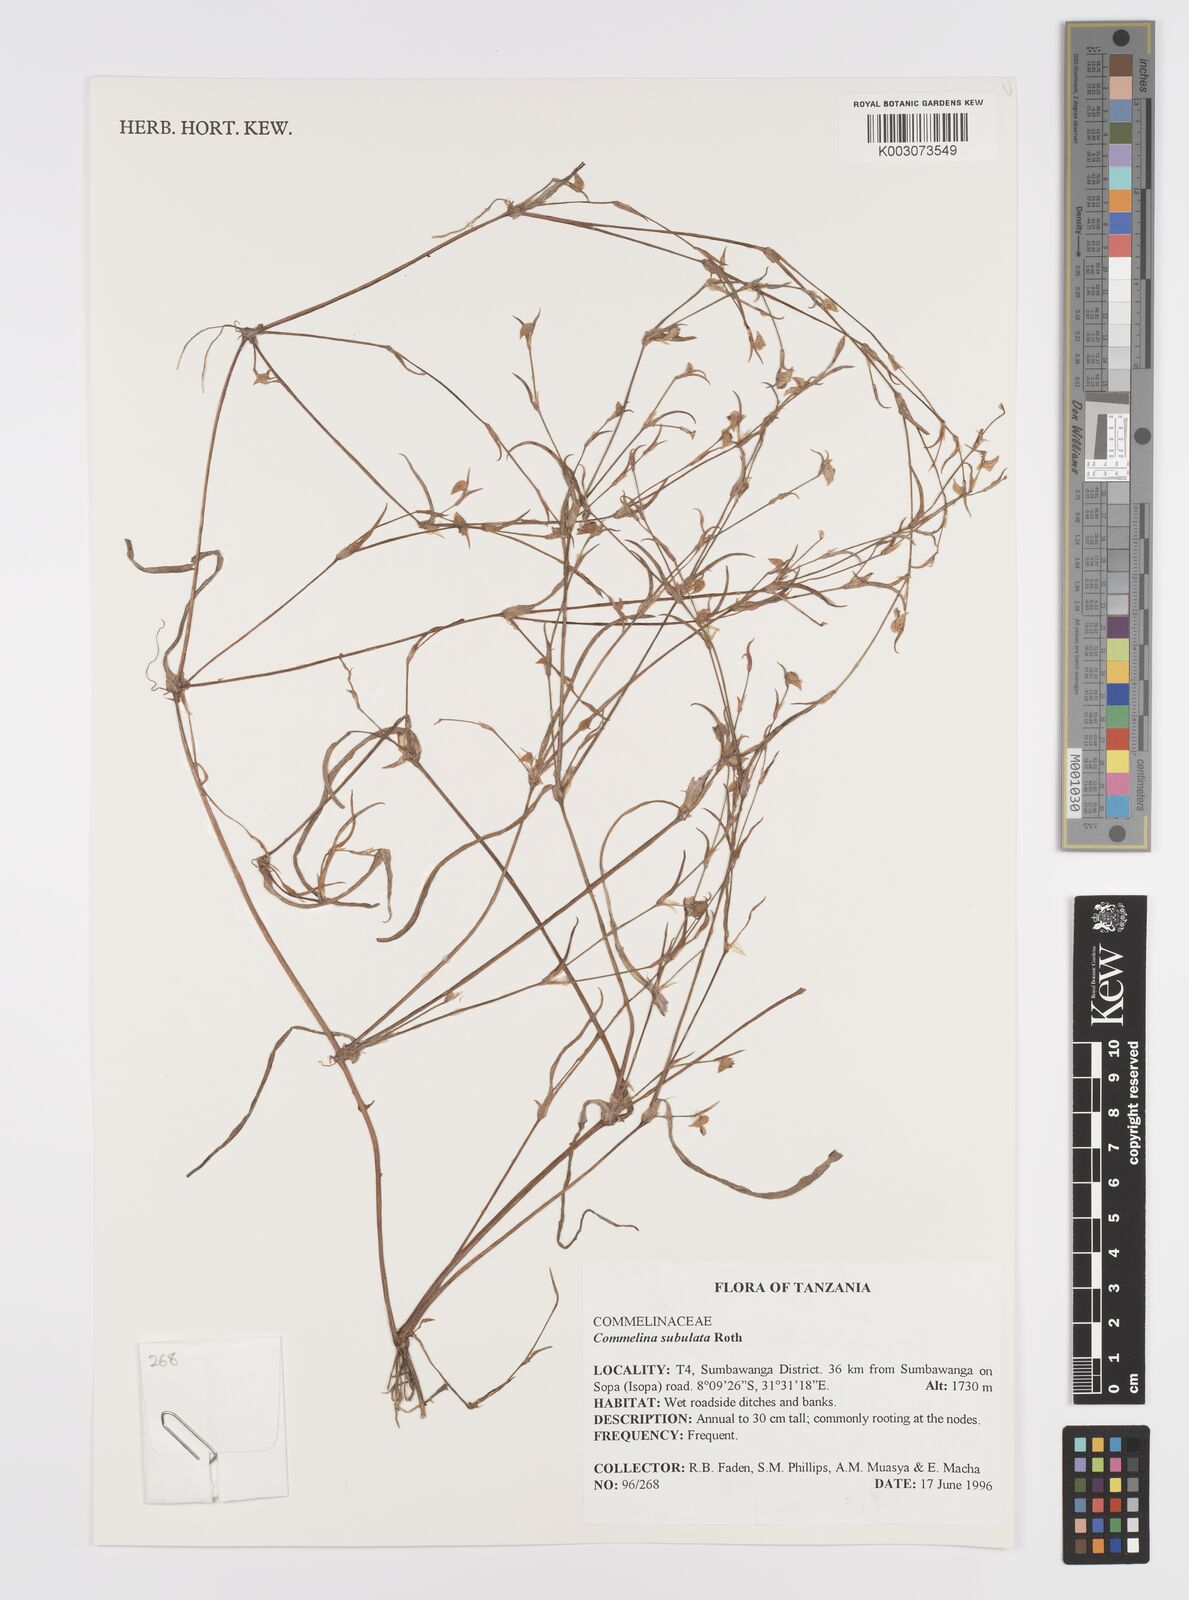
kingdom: Plantae
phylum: Tracheophyta
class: Liliopsida
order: Commelinales
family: Commelinaceae
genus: Commelina
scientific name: Commelina subulata
